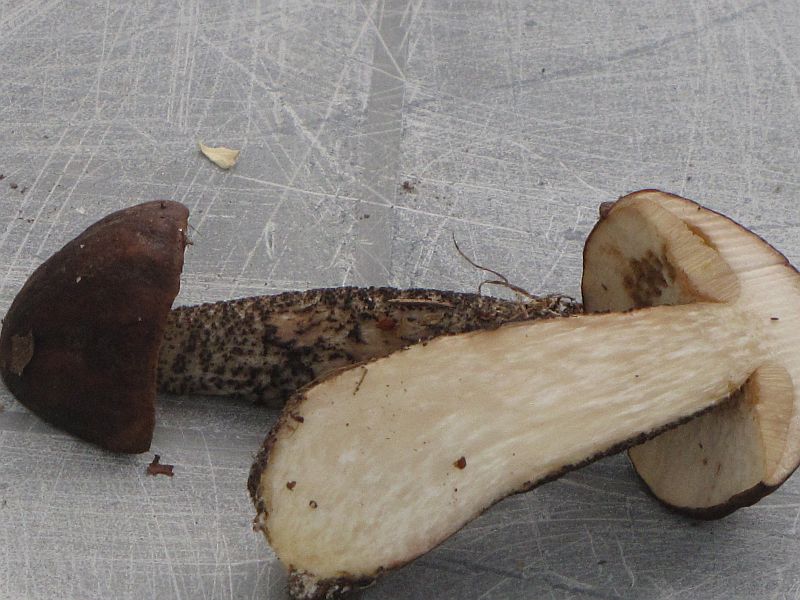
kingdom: Fungi
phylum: Basidiomycota
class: Agaricomycetes
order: Boletales
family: Boletaceae
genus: Leccinum
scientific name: Leccinum melaneum
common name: mørk skælrørhat
